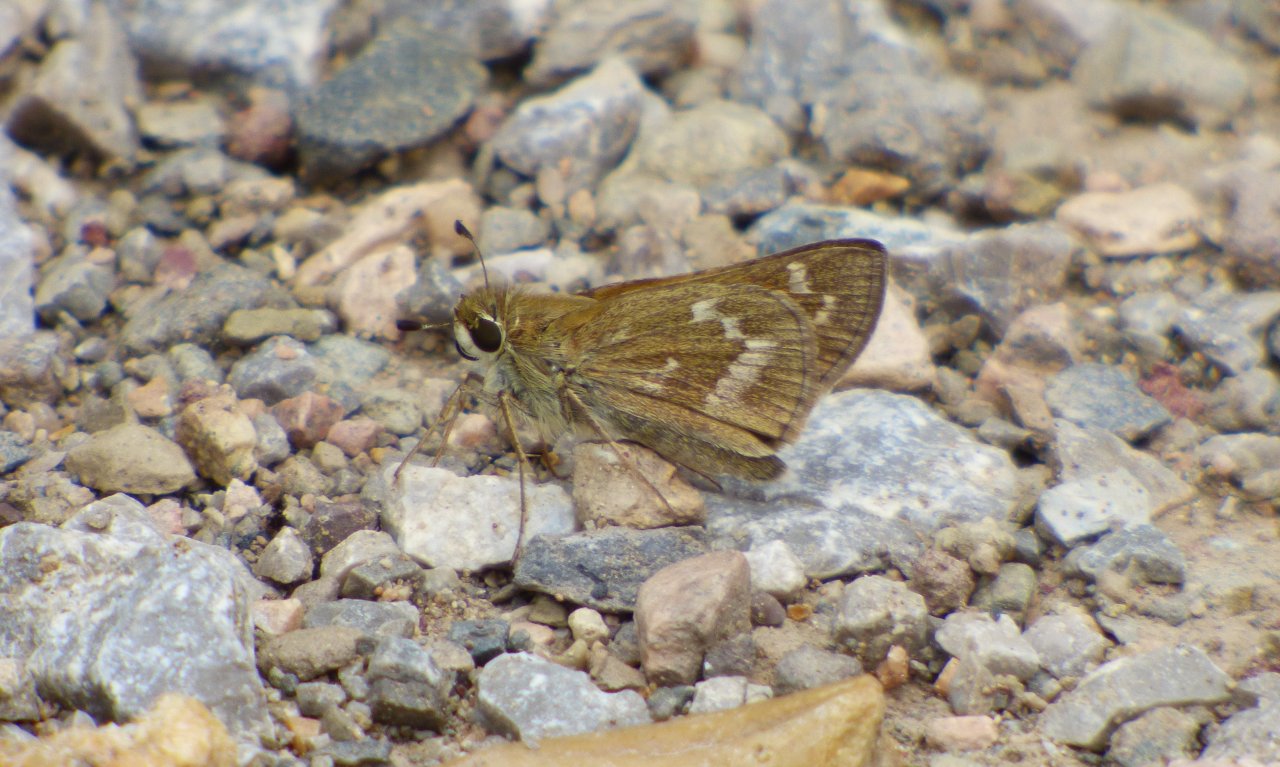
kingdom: Animalia
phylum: Arthropoda
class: Insecta
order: Lepidoptera
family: Hesperiidae
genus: Atalopedes
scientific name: Atalopedes campestris
